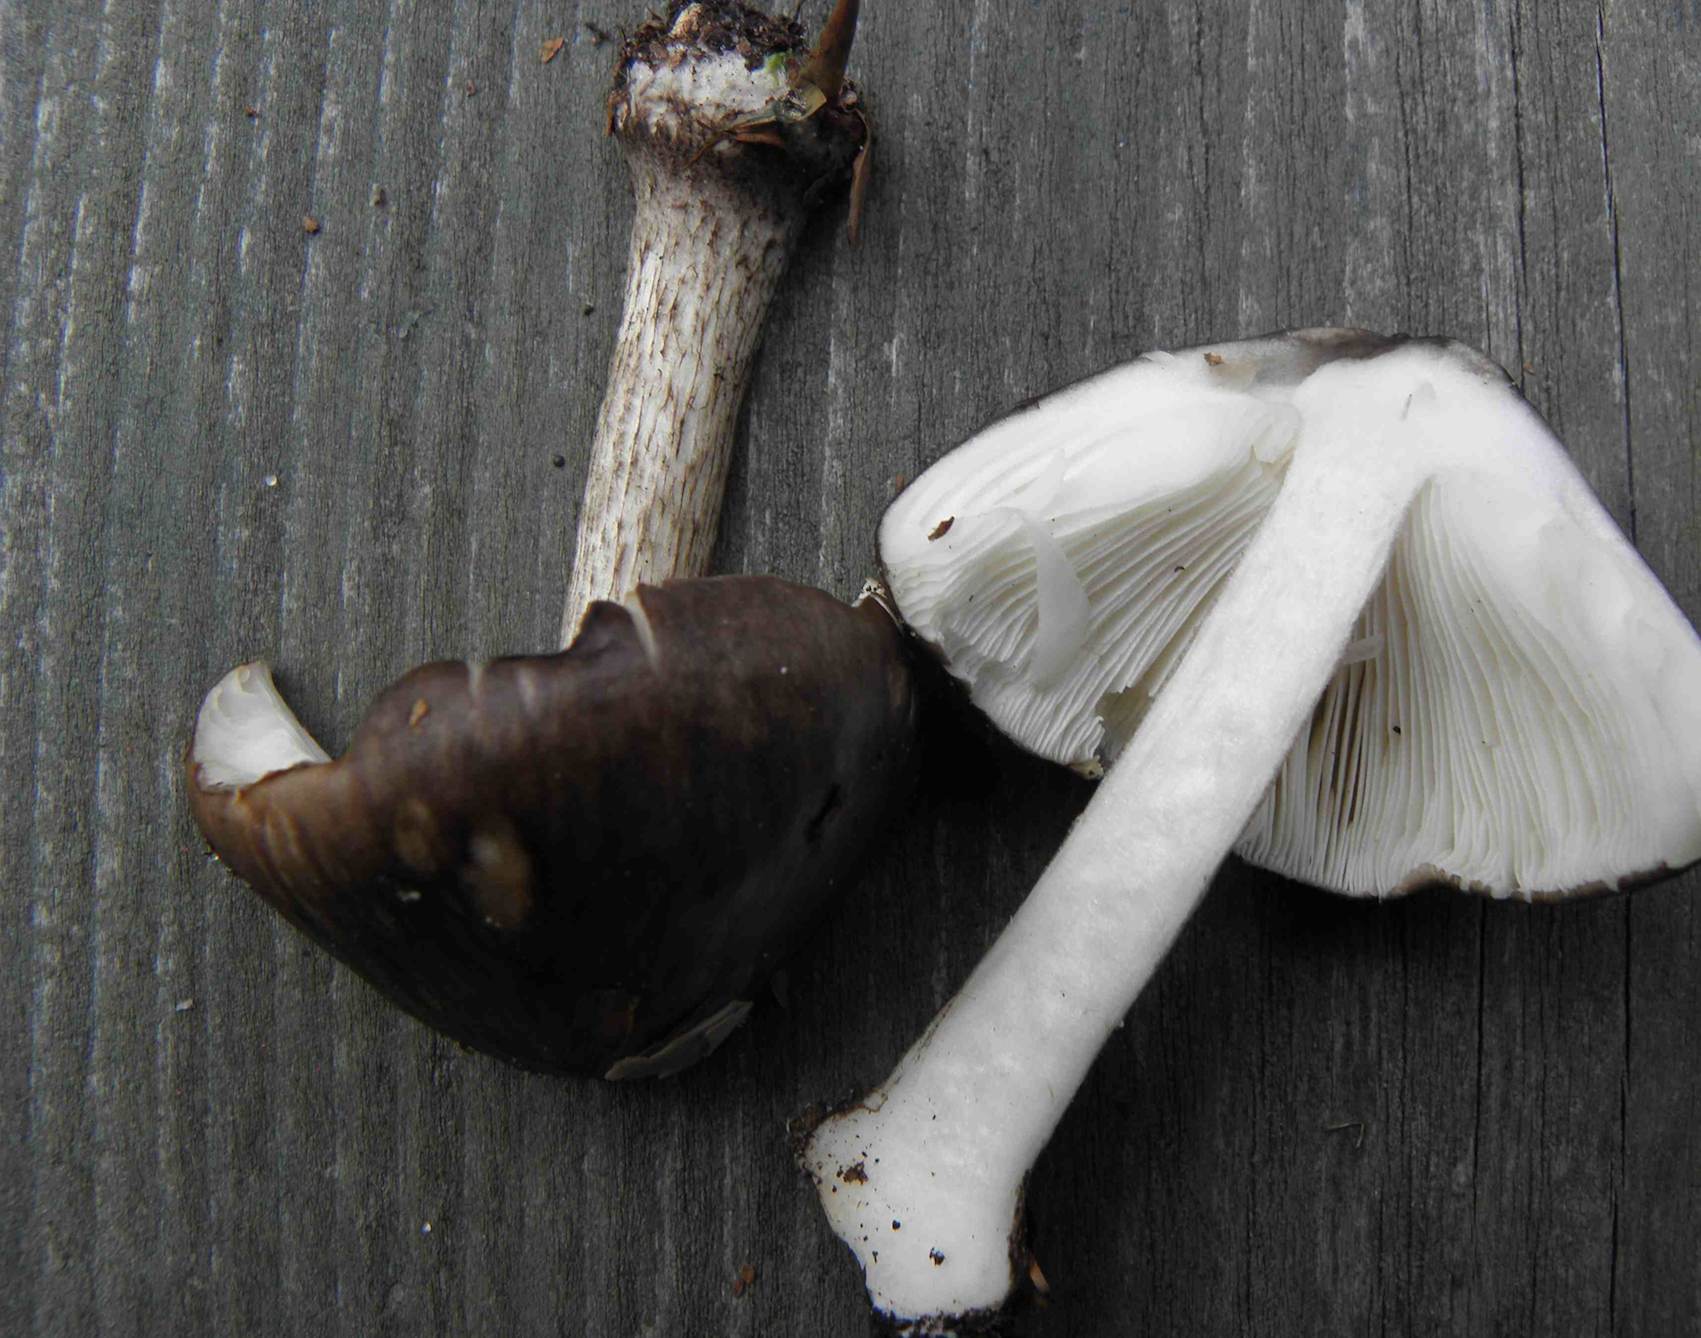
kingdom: Fungi
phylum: Basidiomycota
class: Agaricomycetes
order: Agaricales
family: Pluteaceae
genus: Pluteus
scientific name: Pluteus cervinus
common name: sodfarvet skærmhat
